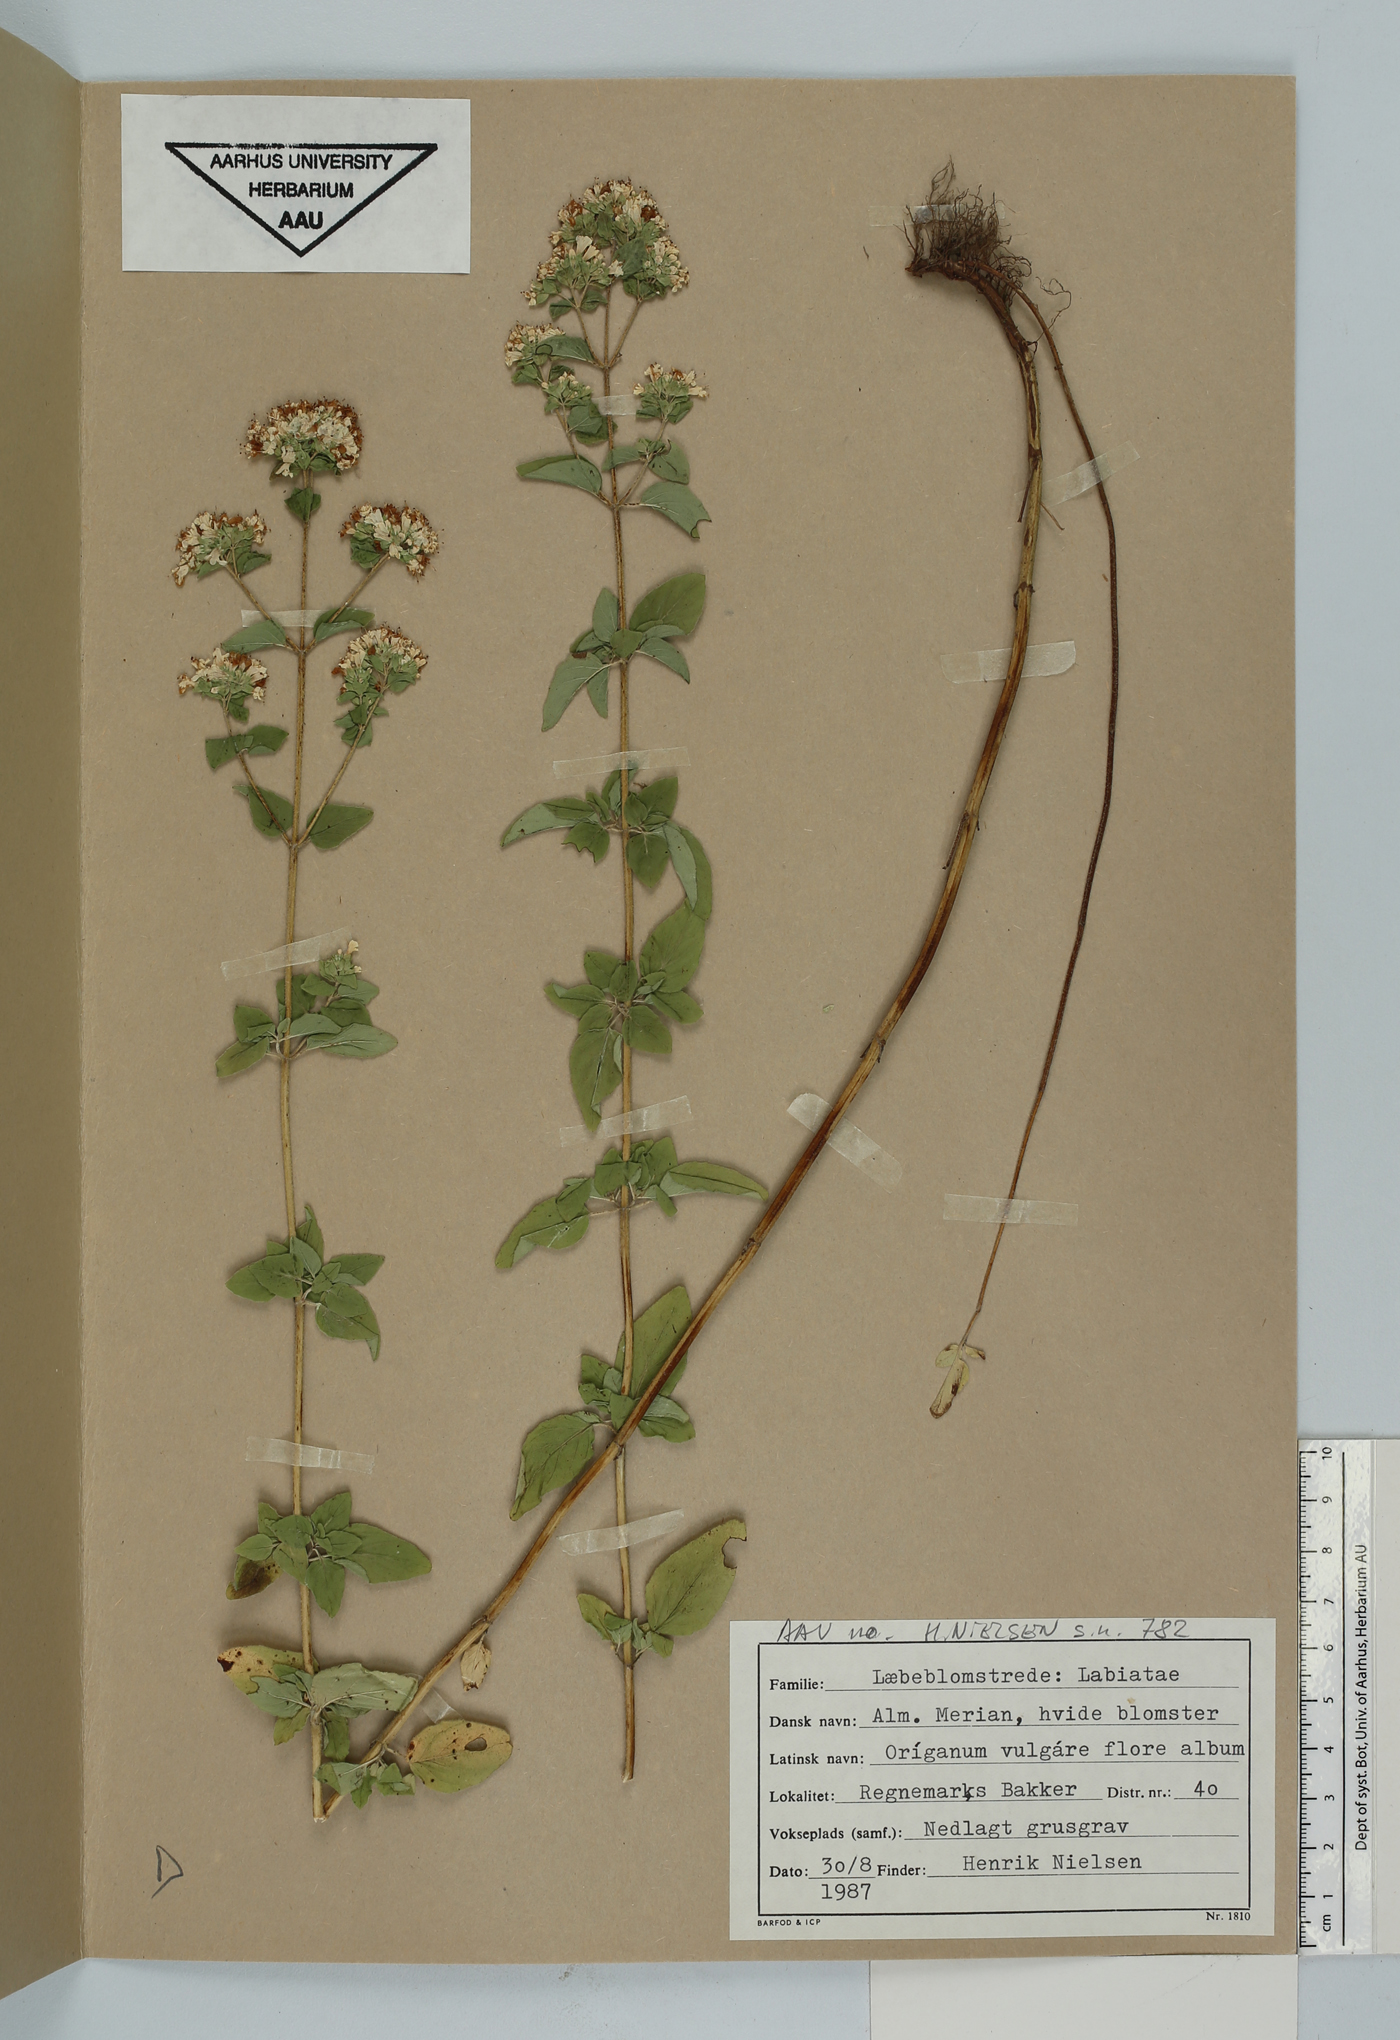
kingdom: Plantae
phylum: Tracheophyta
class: Magnoliopsida
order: Lamiales
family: Lamiaceae
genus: Origanum
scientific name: Origanum vulgare
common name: Wild marjoram
